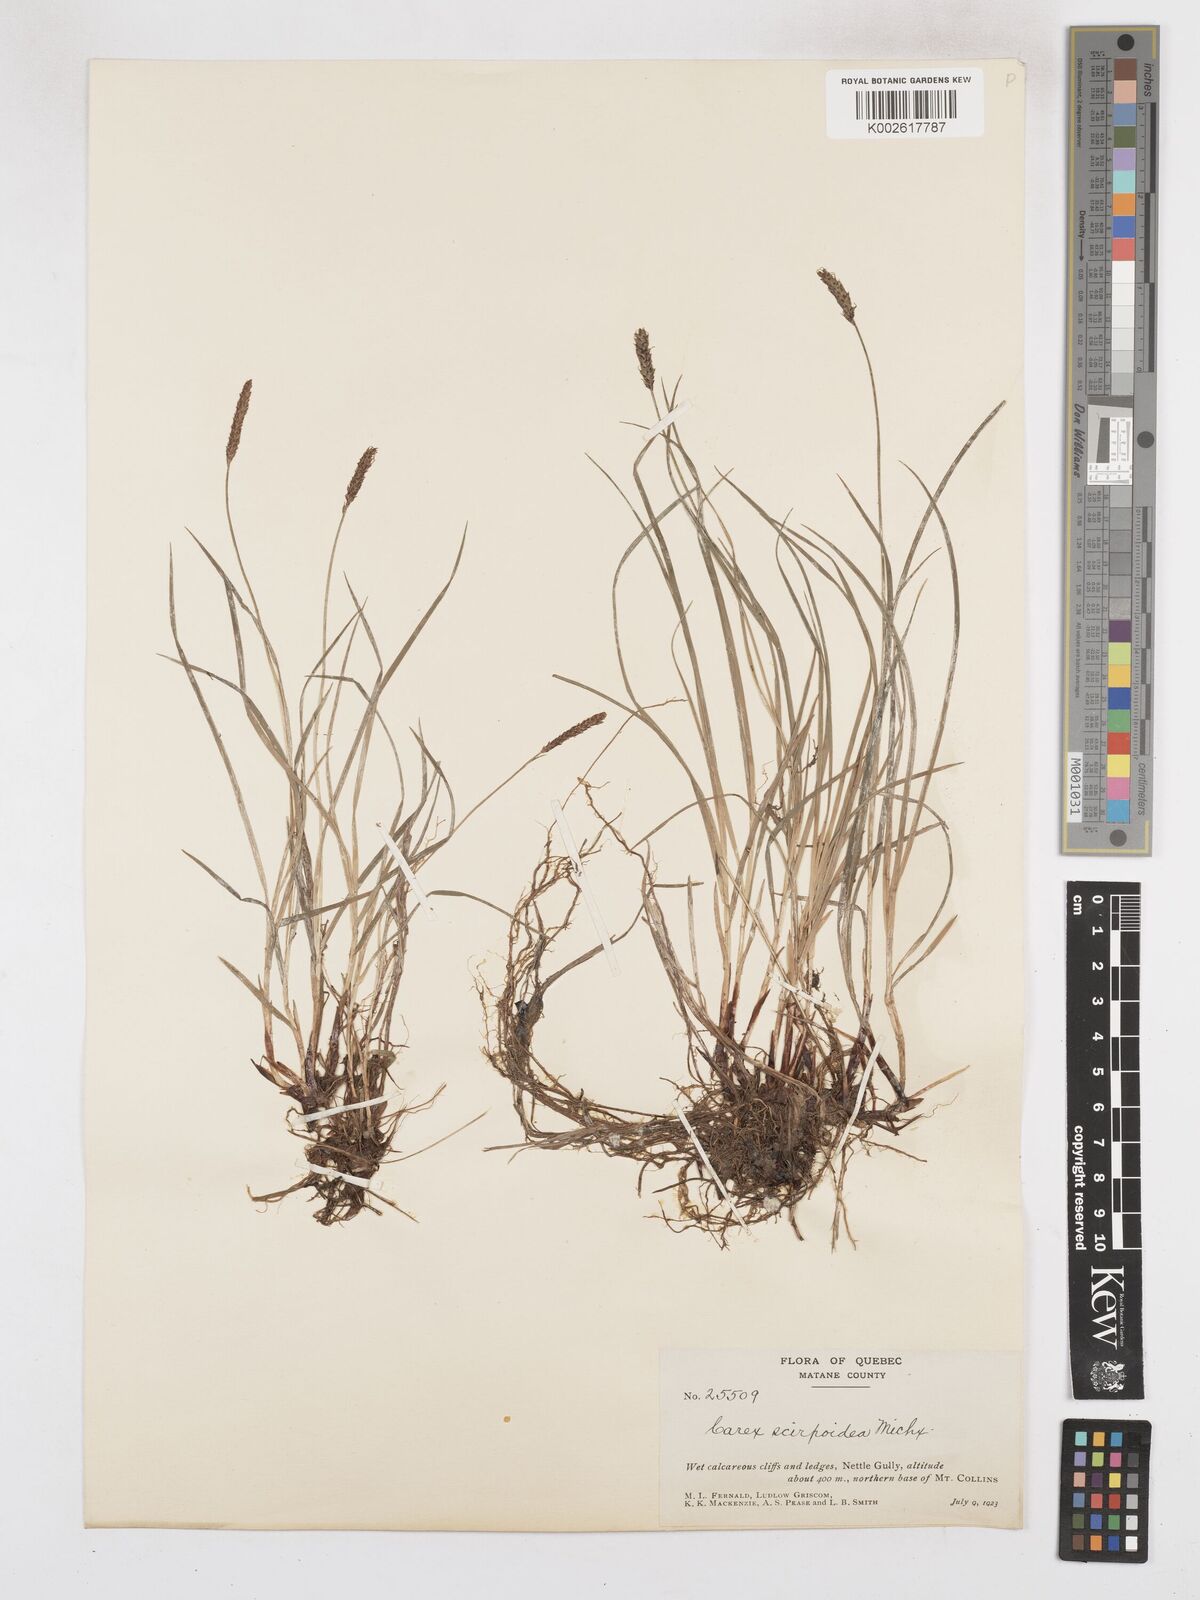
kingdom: Plantae
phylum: Tracheophyta
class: Liliopsida
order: Poales
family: Cyperaceae
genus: Carex
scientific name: Carex scirpoidea
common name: Canada single-spike sedge
